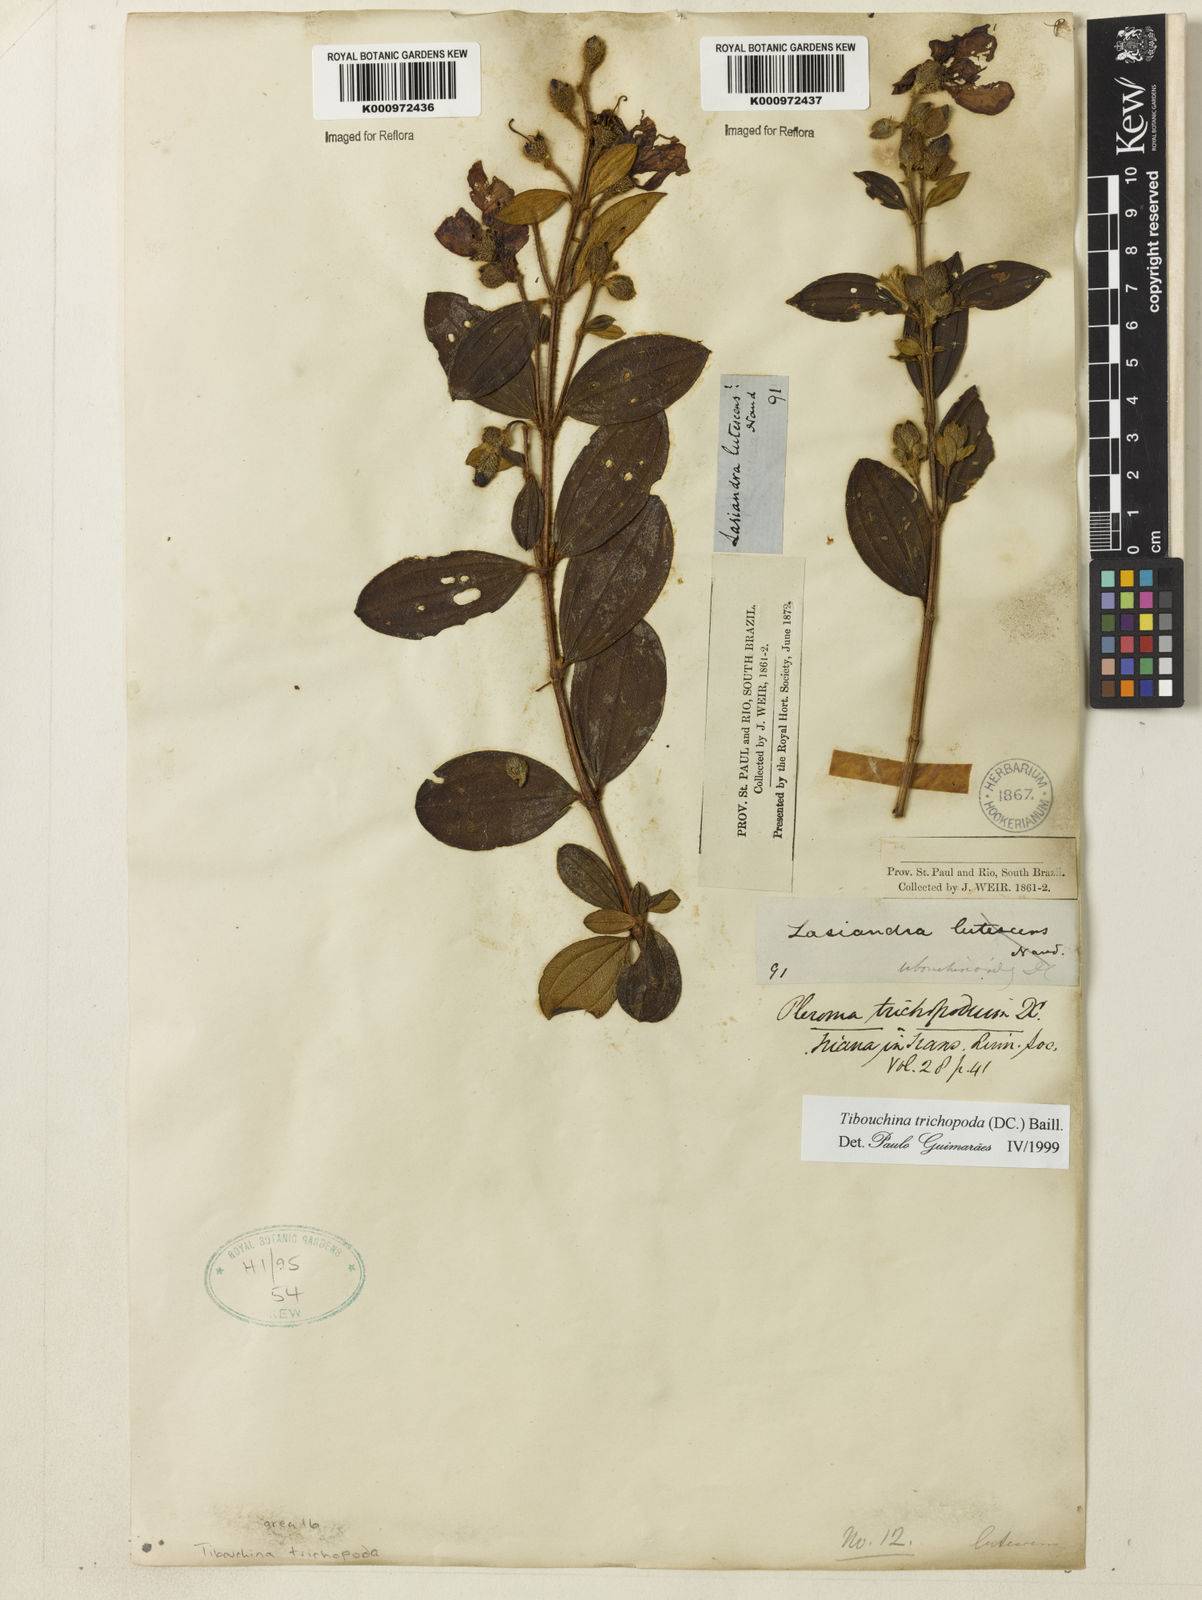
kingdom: Plantae
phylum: Tracheophyta
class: Magnoliopsida
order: Myrtales
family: Melastomataceae
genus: Pleroma
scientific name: Pleroma trichopodum
